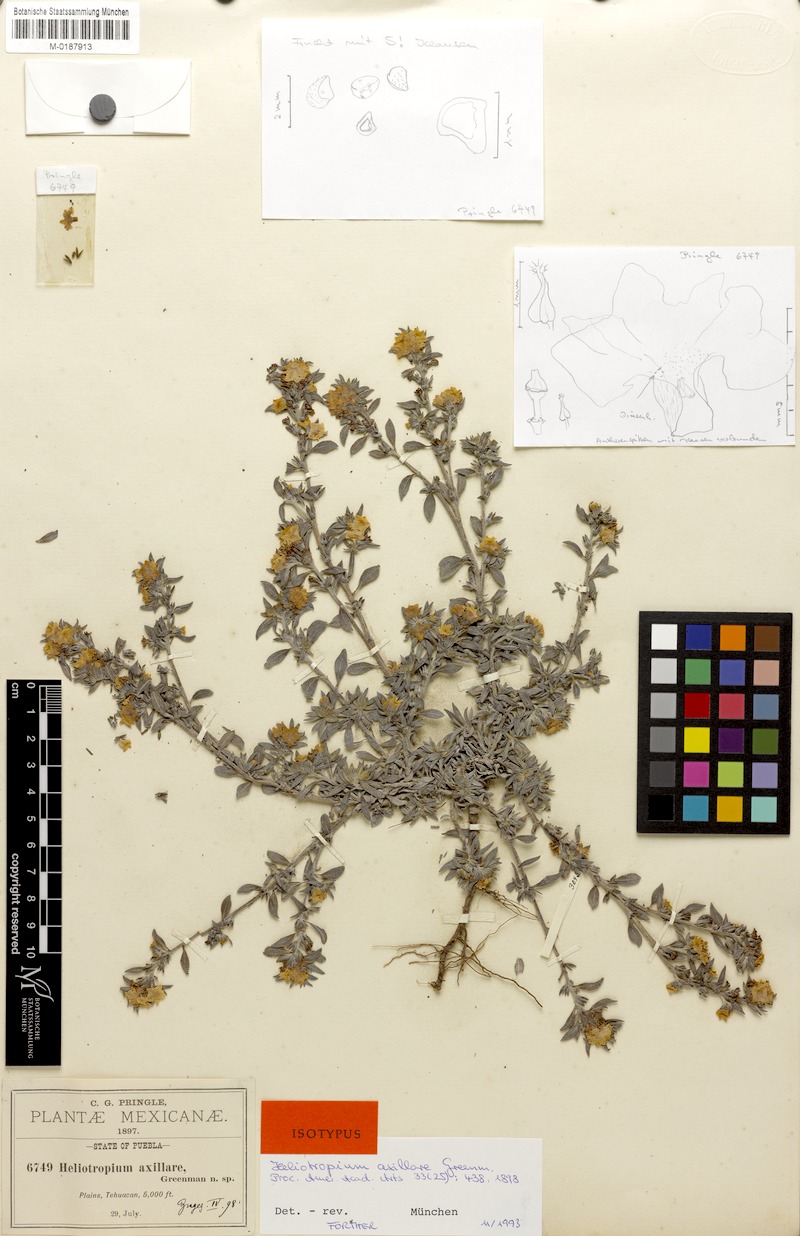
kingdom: Plantae
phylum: Tracheophyta
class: Magnoliopsida
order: Boraginales
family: Heliotropiaceae
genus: Euploca
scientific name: Euploca axillaris
